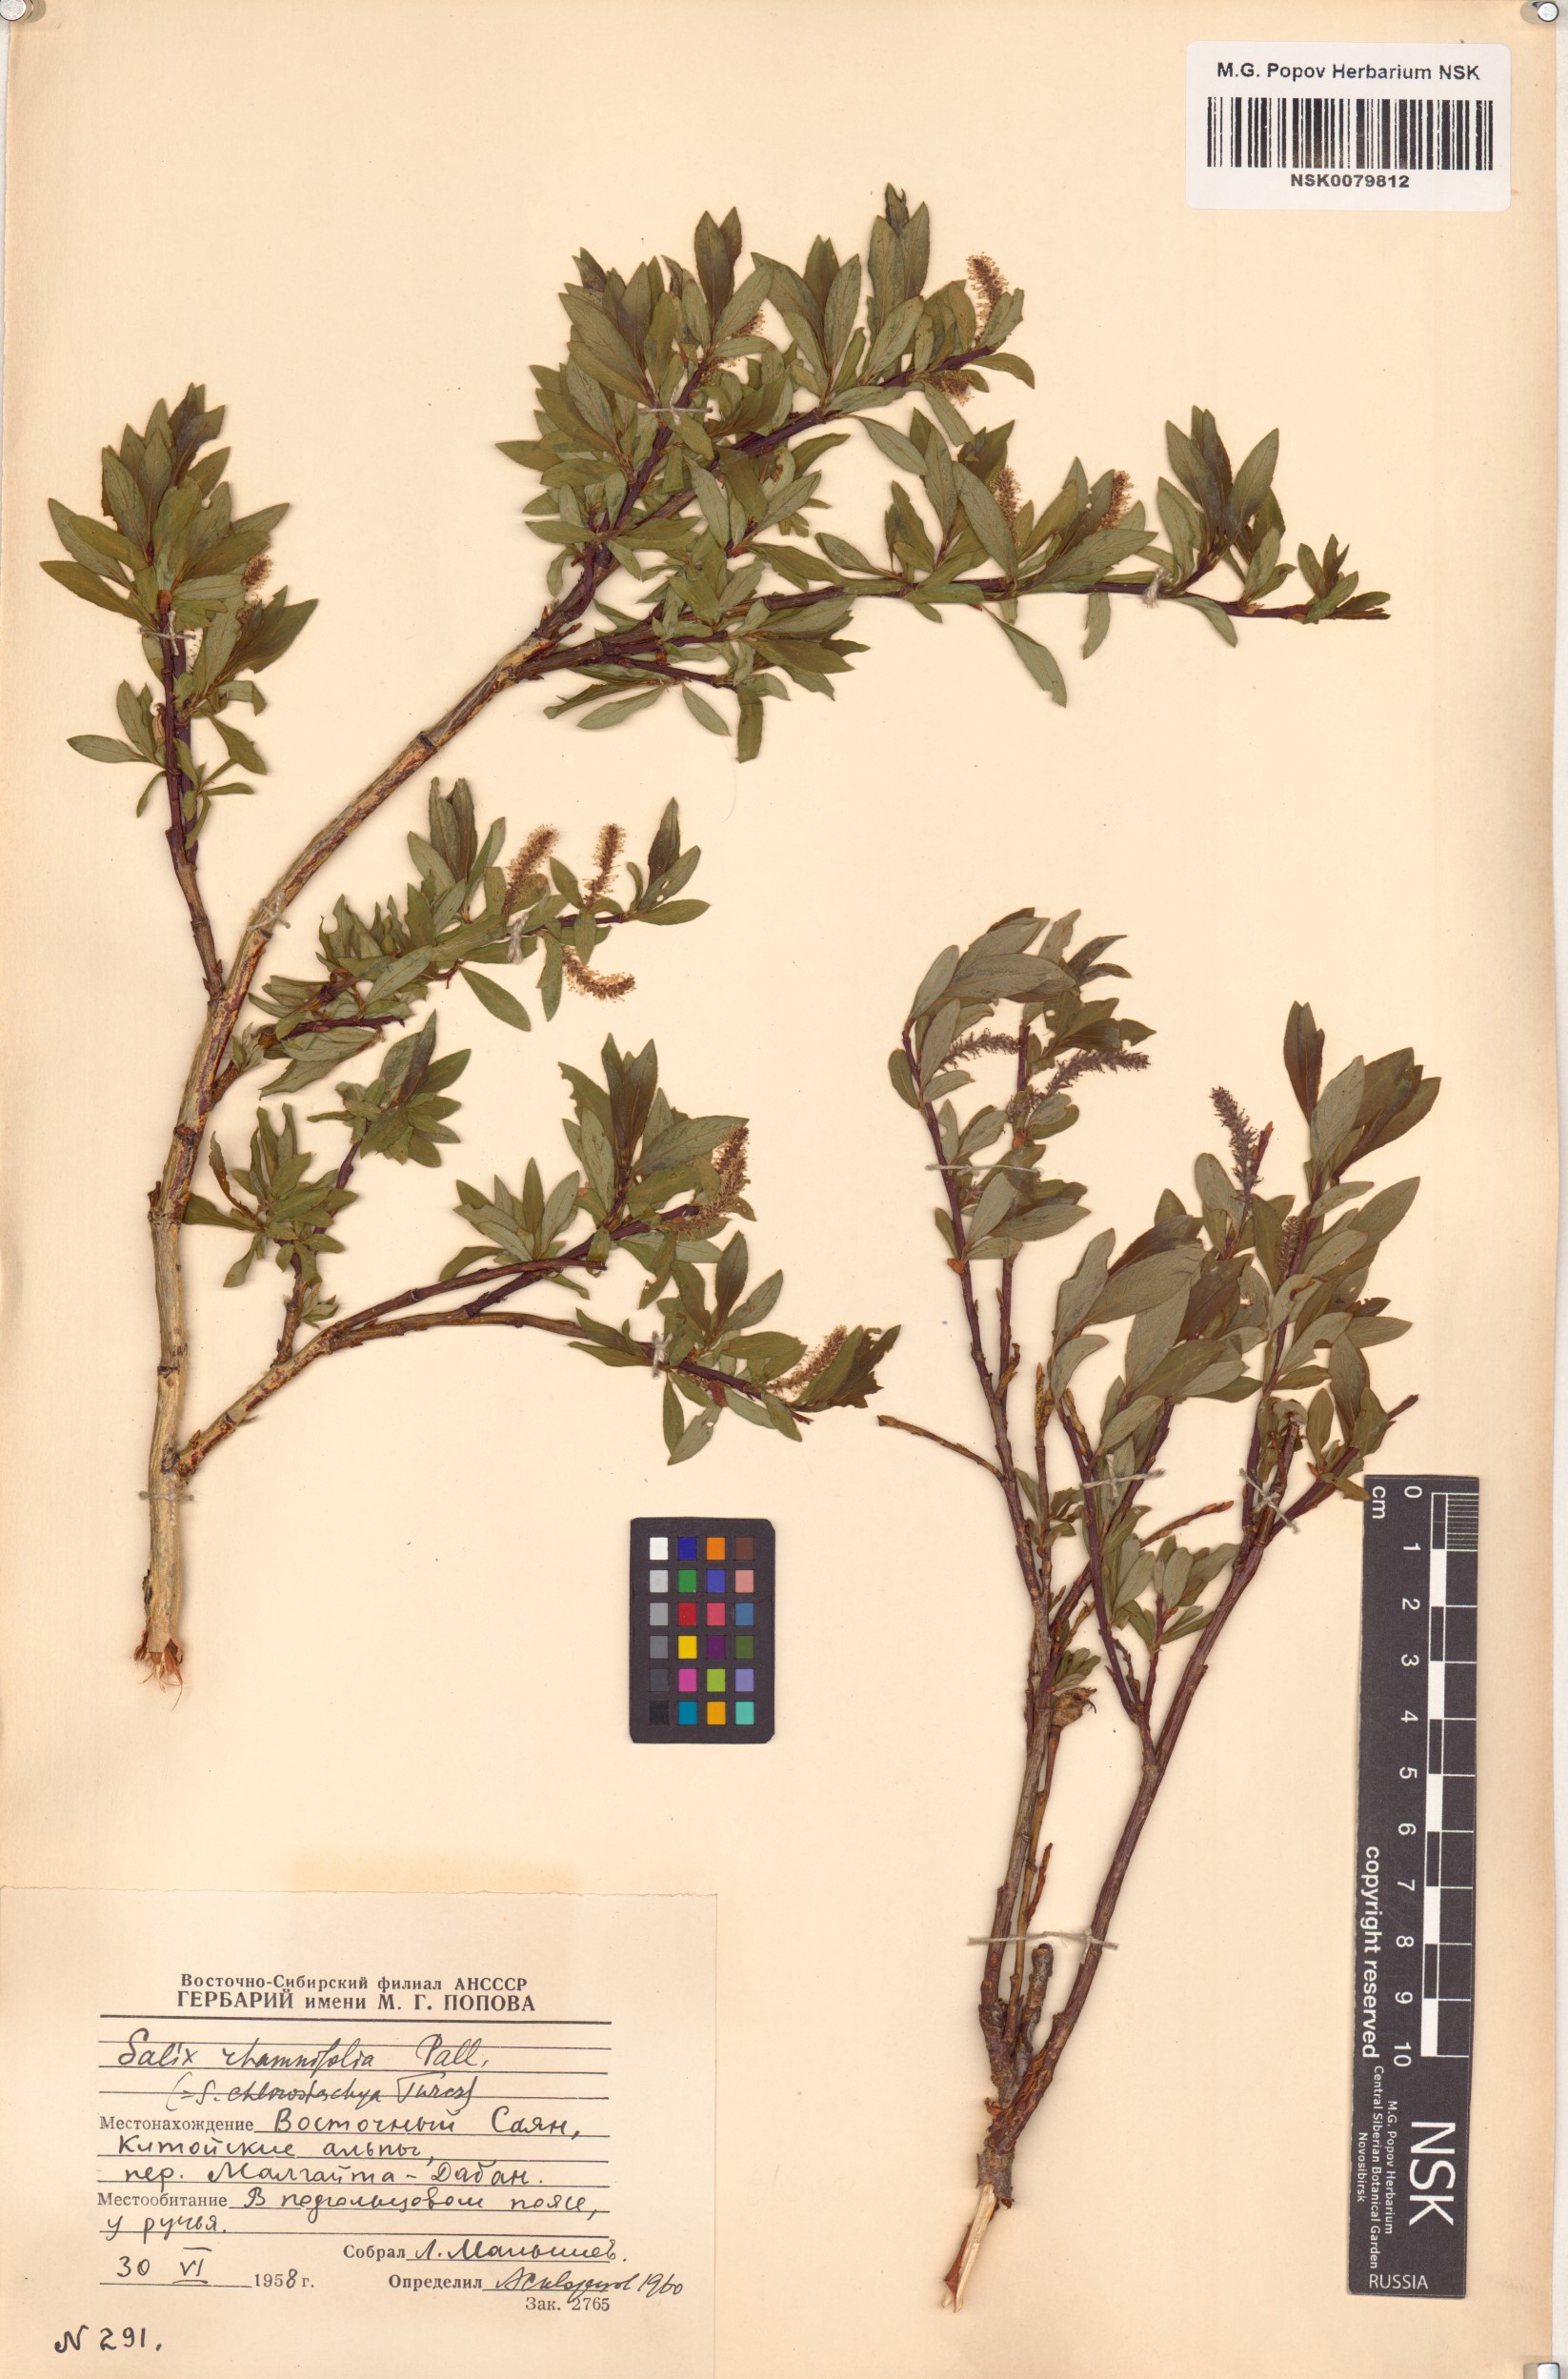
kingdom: Plantae
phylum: Tracheophyta
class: Magnoliopsida
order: Malpighiales
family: Salicaceae
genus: Salix
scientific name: Salix rhamnifolia
